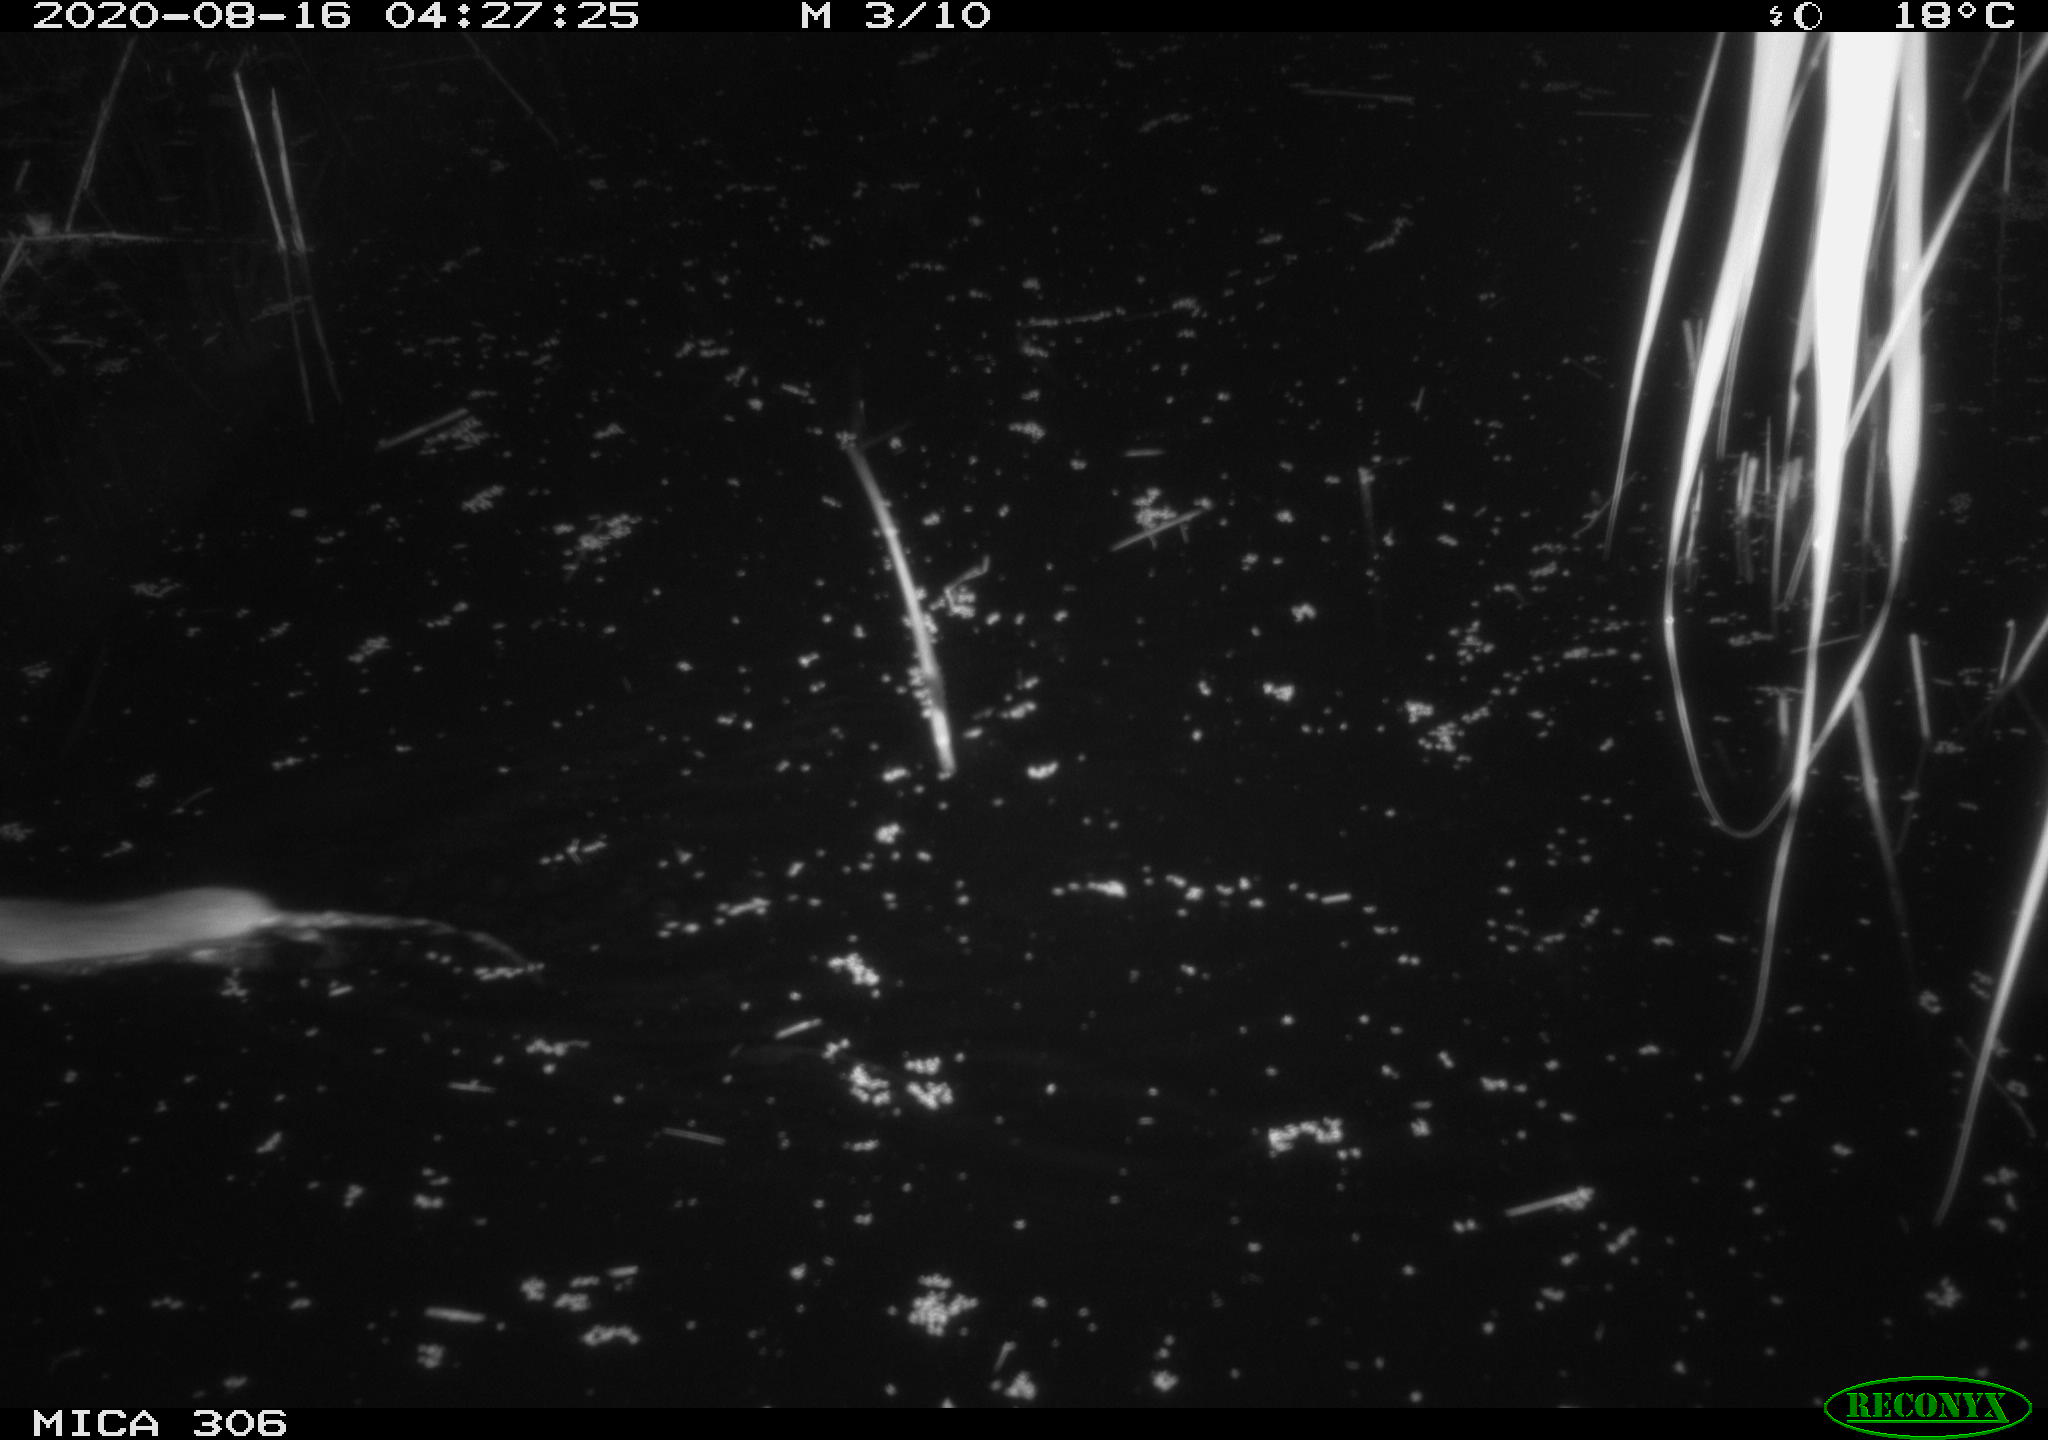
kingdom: Animalia
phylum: Chordata
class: Mammalia
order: Rodentia
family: Muridae
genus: Rattus
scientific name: Rattus norvegicus
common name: Brown rat
